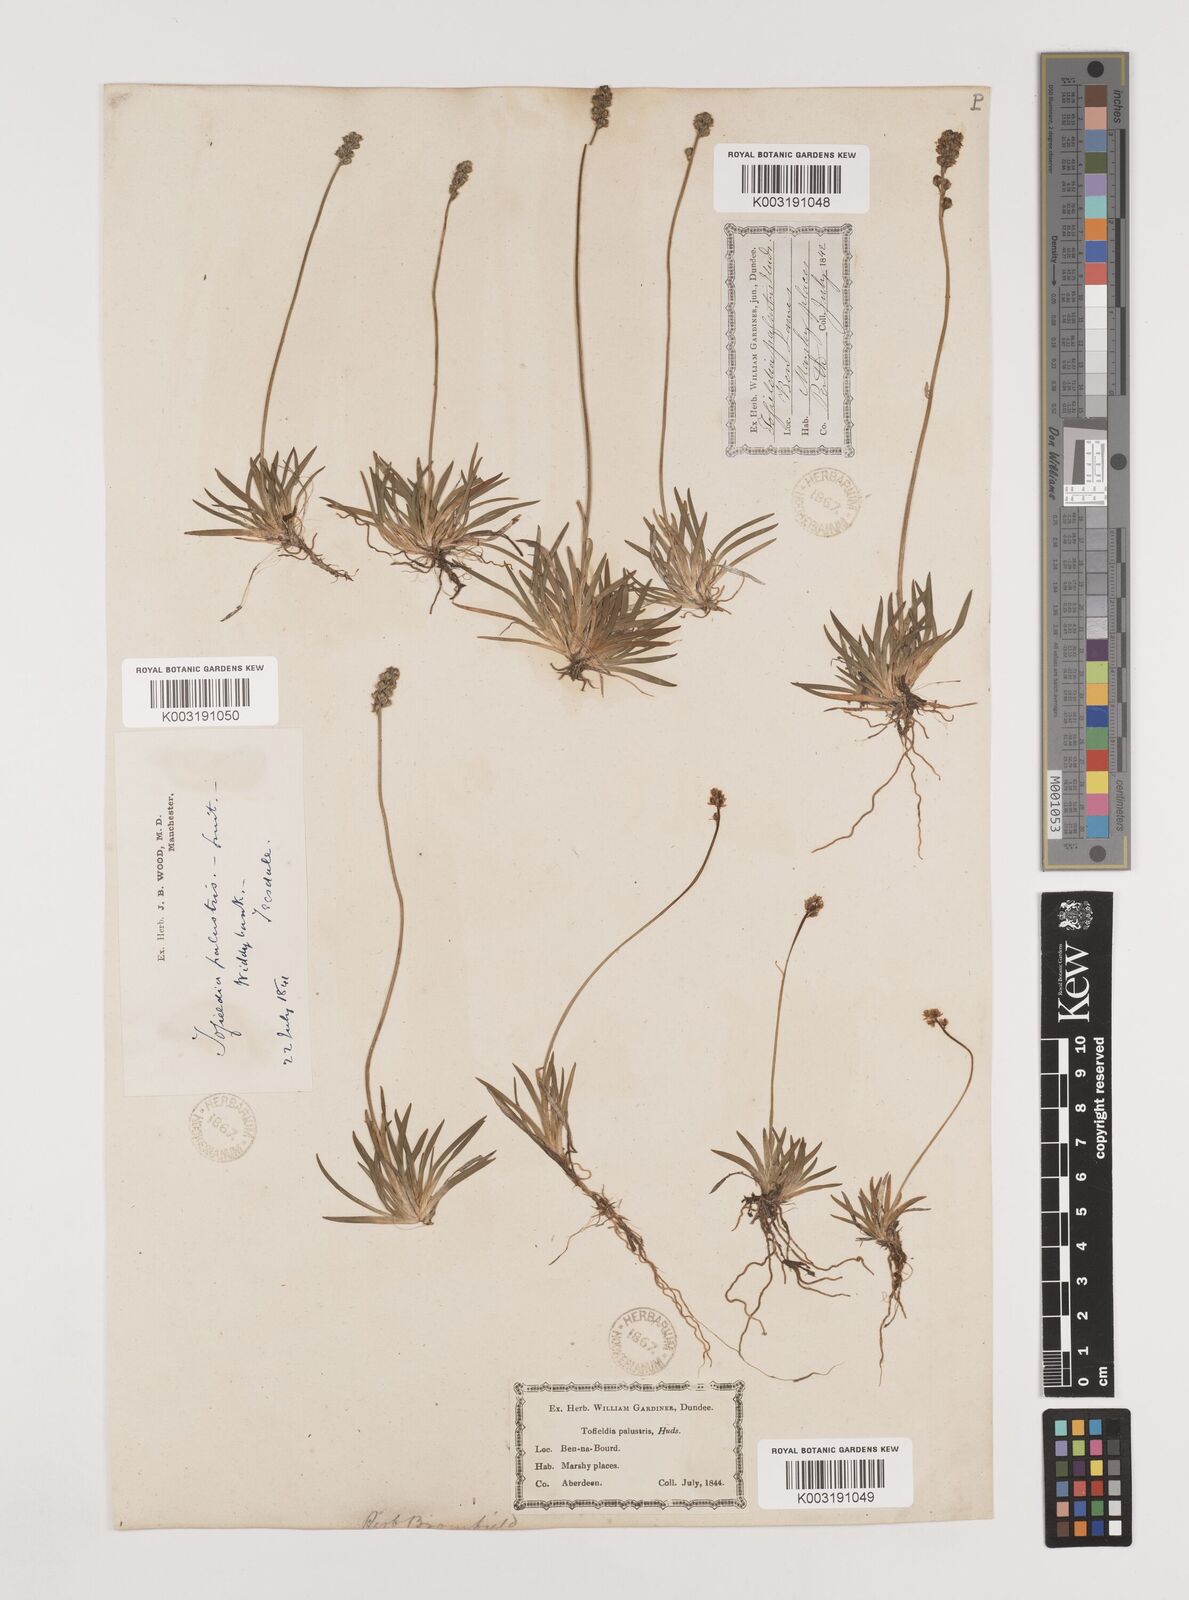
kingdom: Plantae
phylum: Tracheophyta
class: Liliopsida
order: Alismatales
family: Tofieldiaceae
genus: Tofieldia
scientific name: Tofieldia pusilla
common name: Scottish false asphodel
